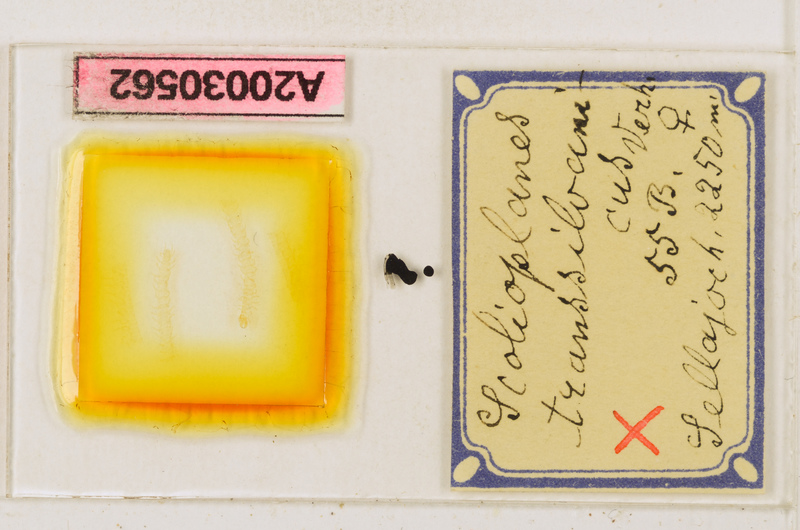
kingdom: Animalia
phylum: Arthropoda
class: Chilopoda
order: Geophilomorpha
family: Linotaeniidae
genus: Strigamia
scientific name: Strigamia transsilvanica
